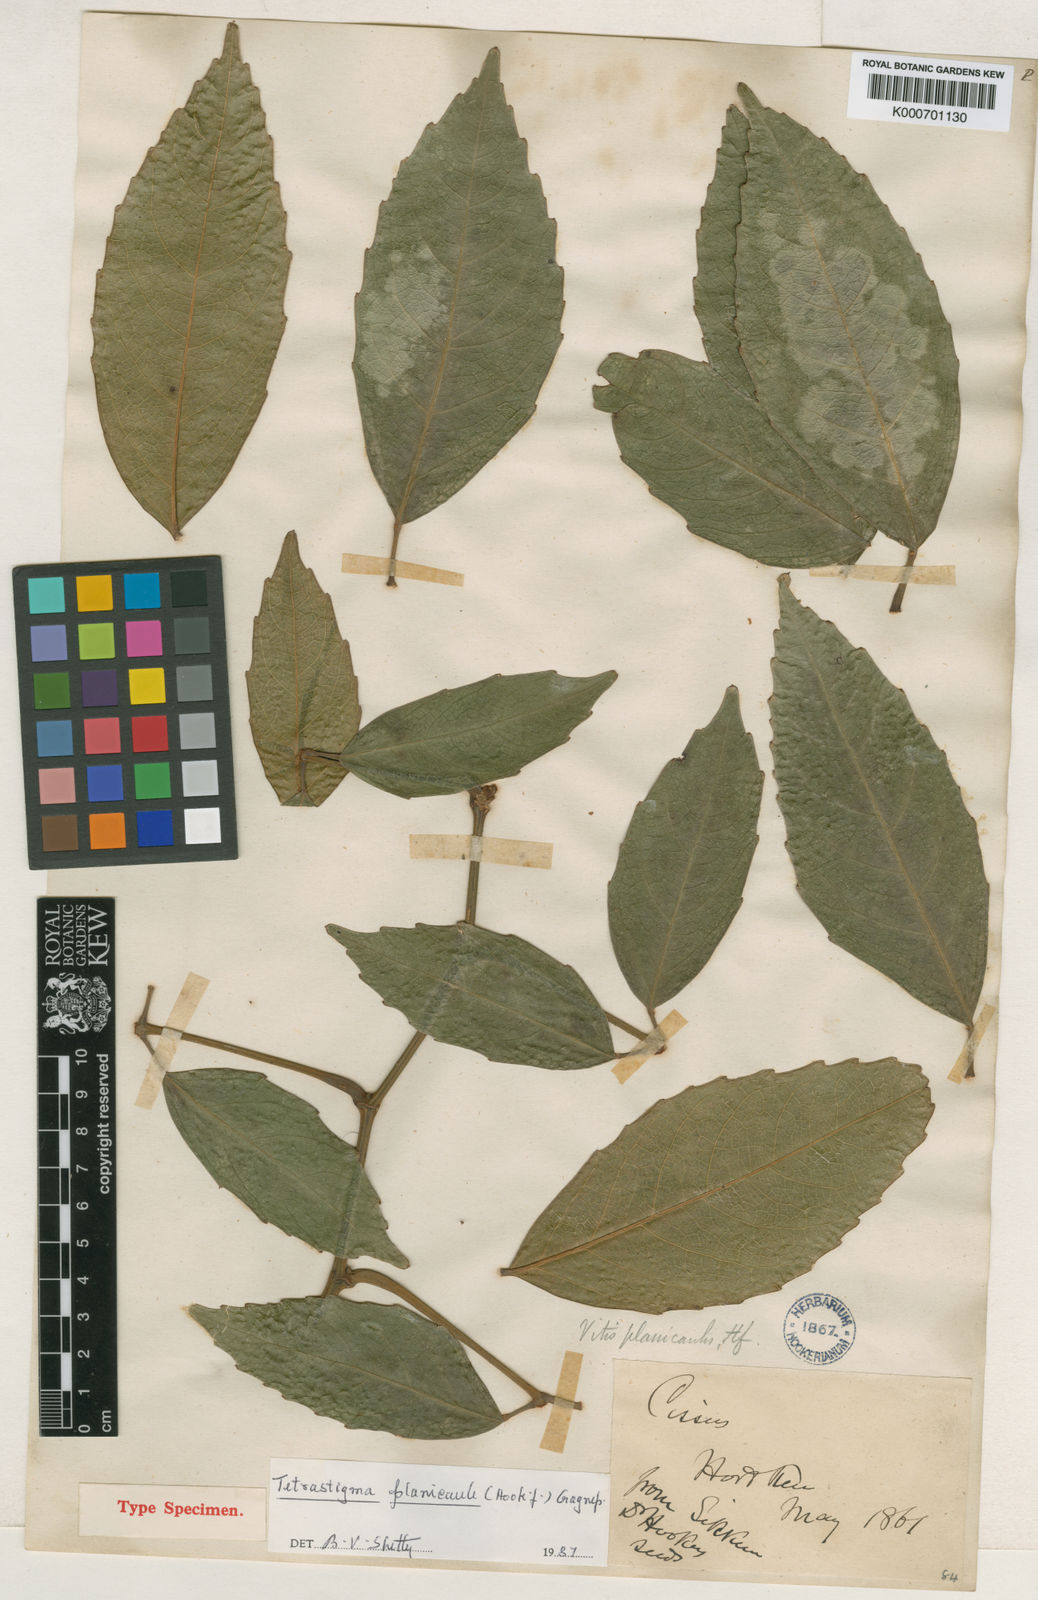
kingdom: Plantae
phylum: Tracheophyta
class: Magnoliopsida
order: Vitales
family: Vitaceae
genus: Tetrastigma
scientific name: Tetrastigma planicaule
